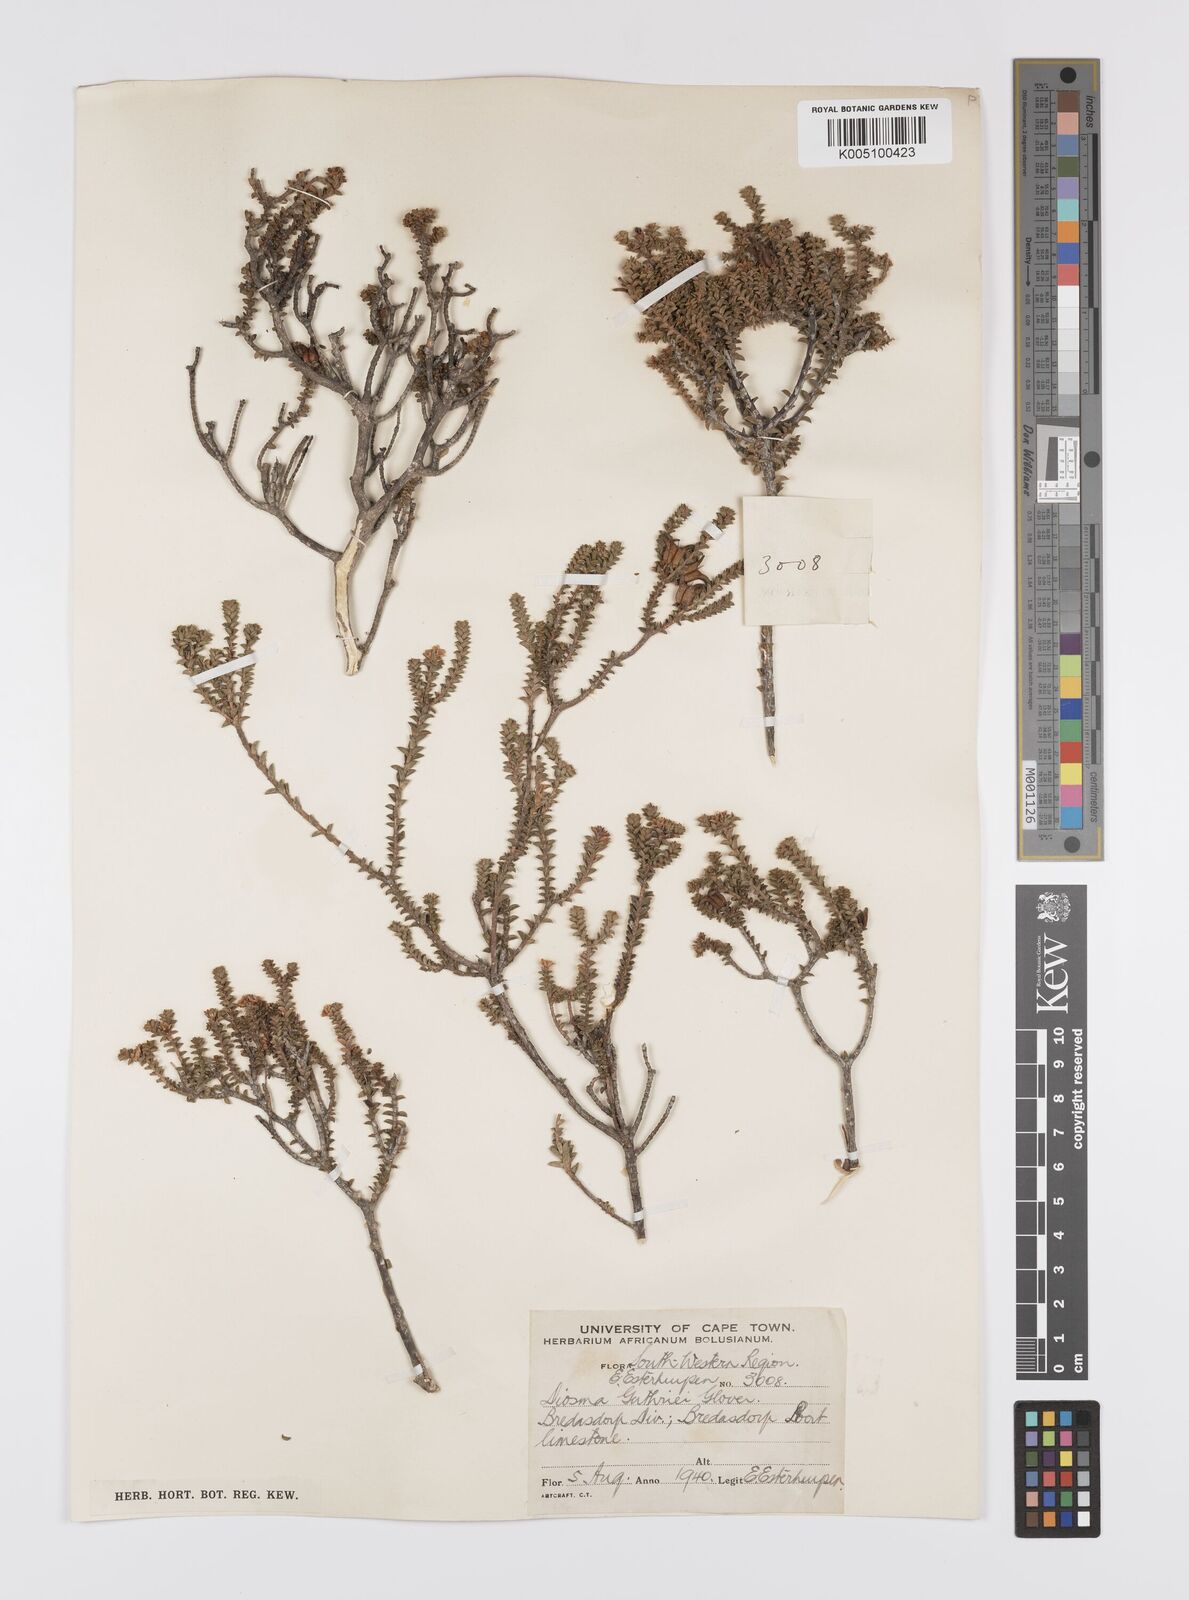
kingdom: Plantae
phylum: Tracheophyta
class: Magnoliopsida
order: Sapindales
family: Rutaceae
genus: Diosma
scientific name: Diosma guthriei
